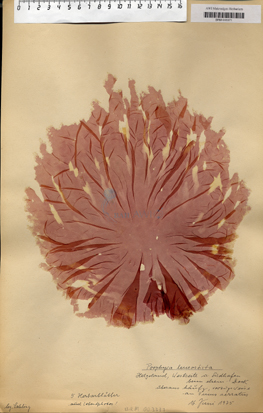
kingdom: Plantae
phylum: Rhodophyta
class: Bangiophyceae
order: Bangiales
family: Bangiaceae
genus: Neopyropia
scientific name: Neopyropia spec
